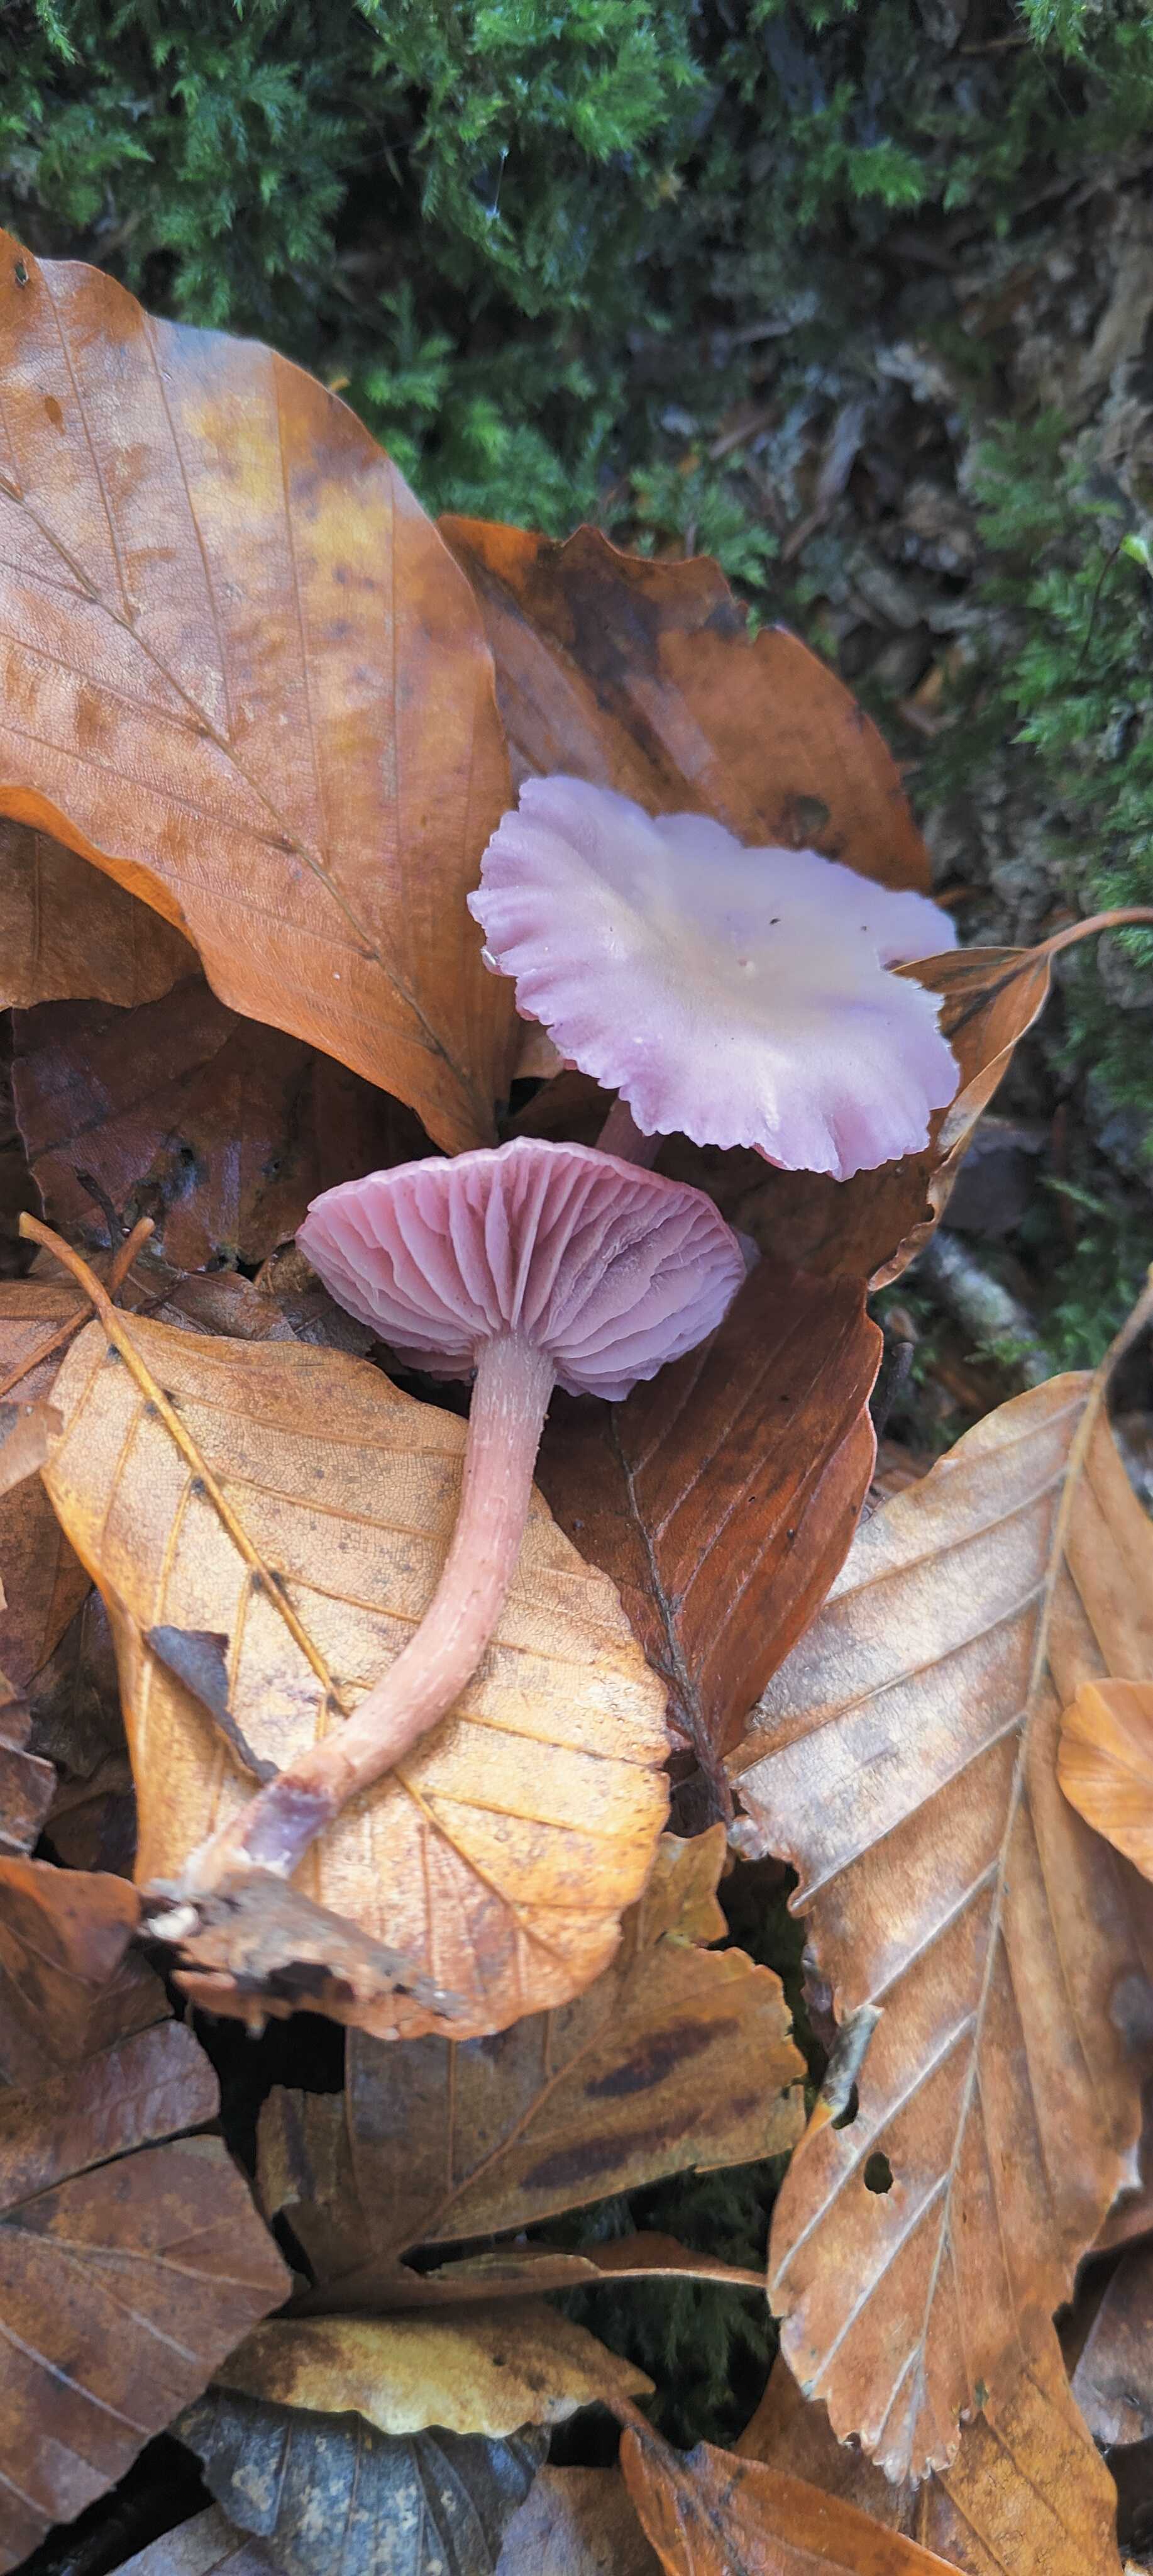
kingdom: Fungi
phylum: Basidiomycota
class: Agaricomycetes
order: Agaricales
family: Hydnangiaceae
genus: Laccaria
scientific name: Laccaria amethystina
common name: violet ametysthat
